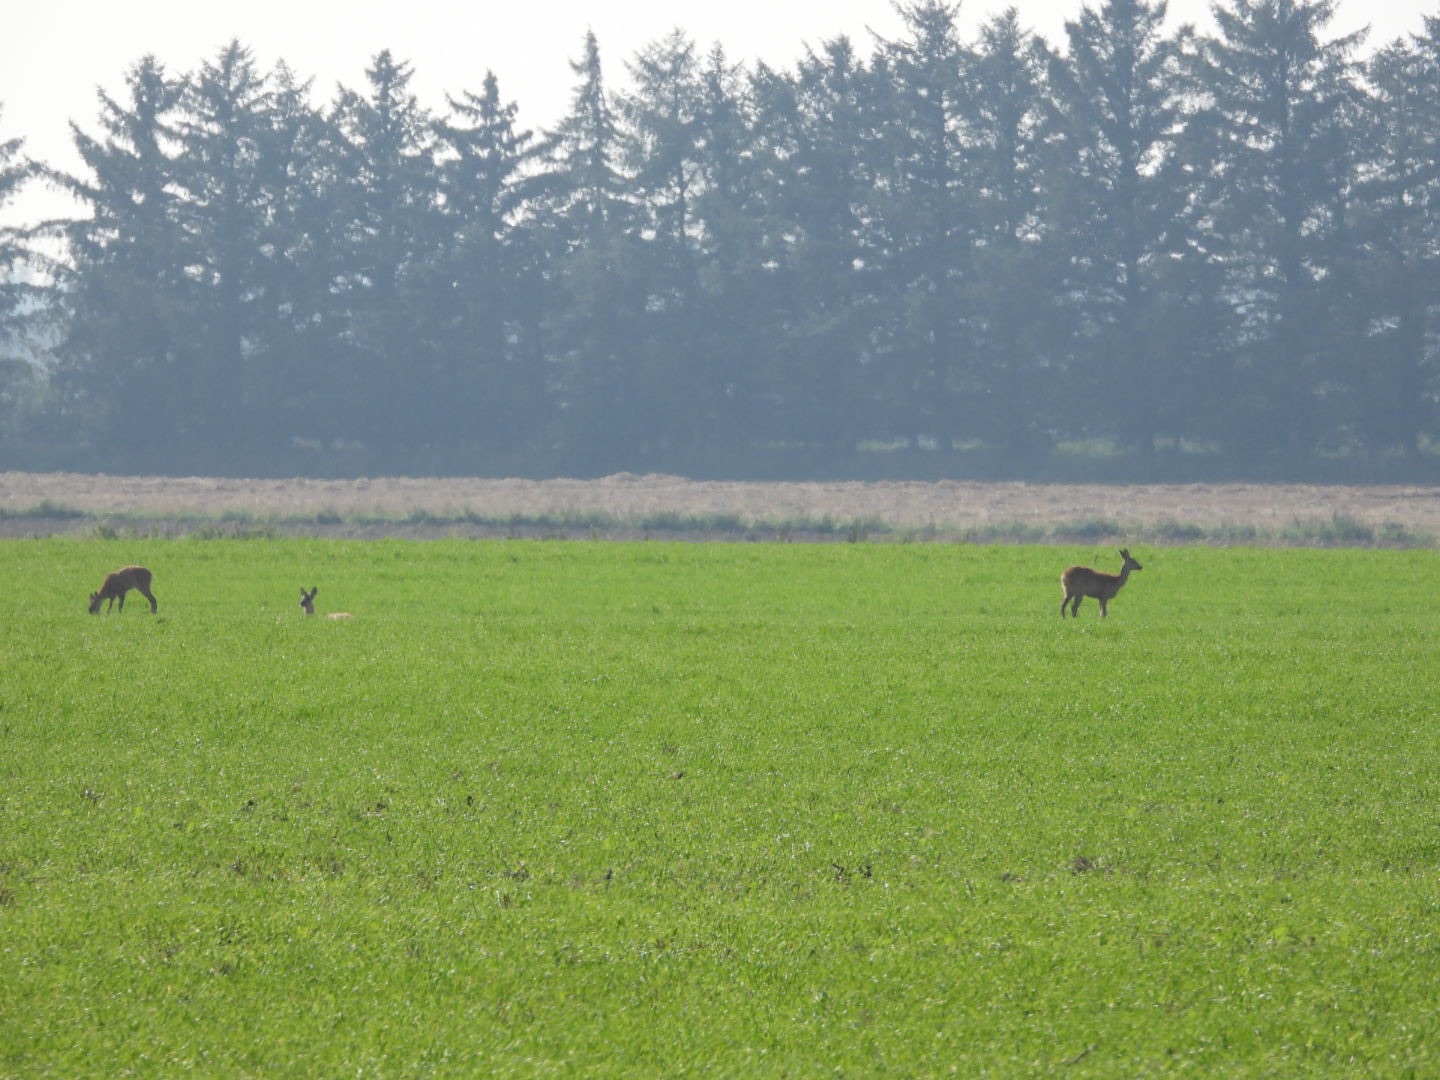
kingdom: Animalia
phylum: Chordata
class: Mammalia
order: Artiodactyla
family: Cervidae
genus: Capreolus
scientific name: Capreolus capreolus
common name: Rådyr
